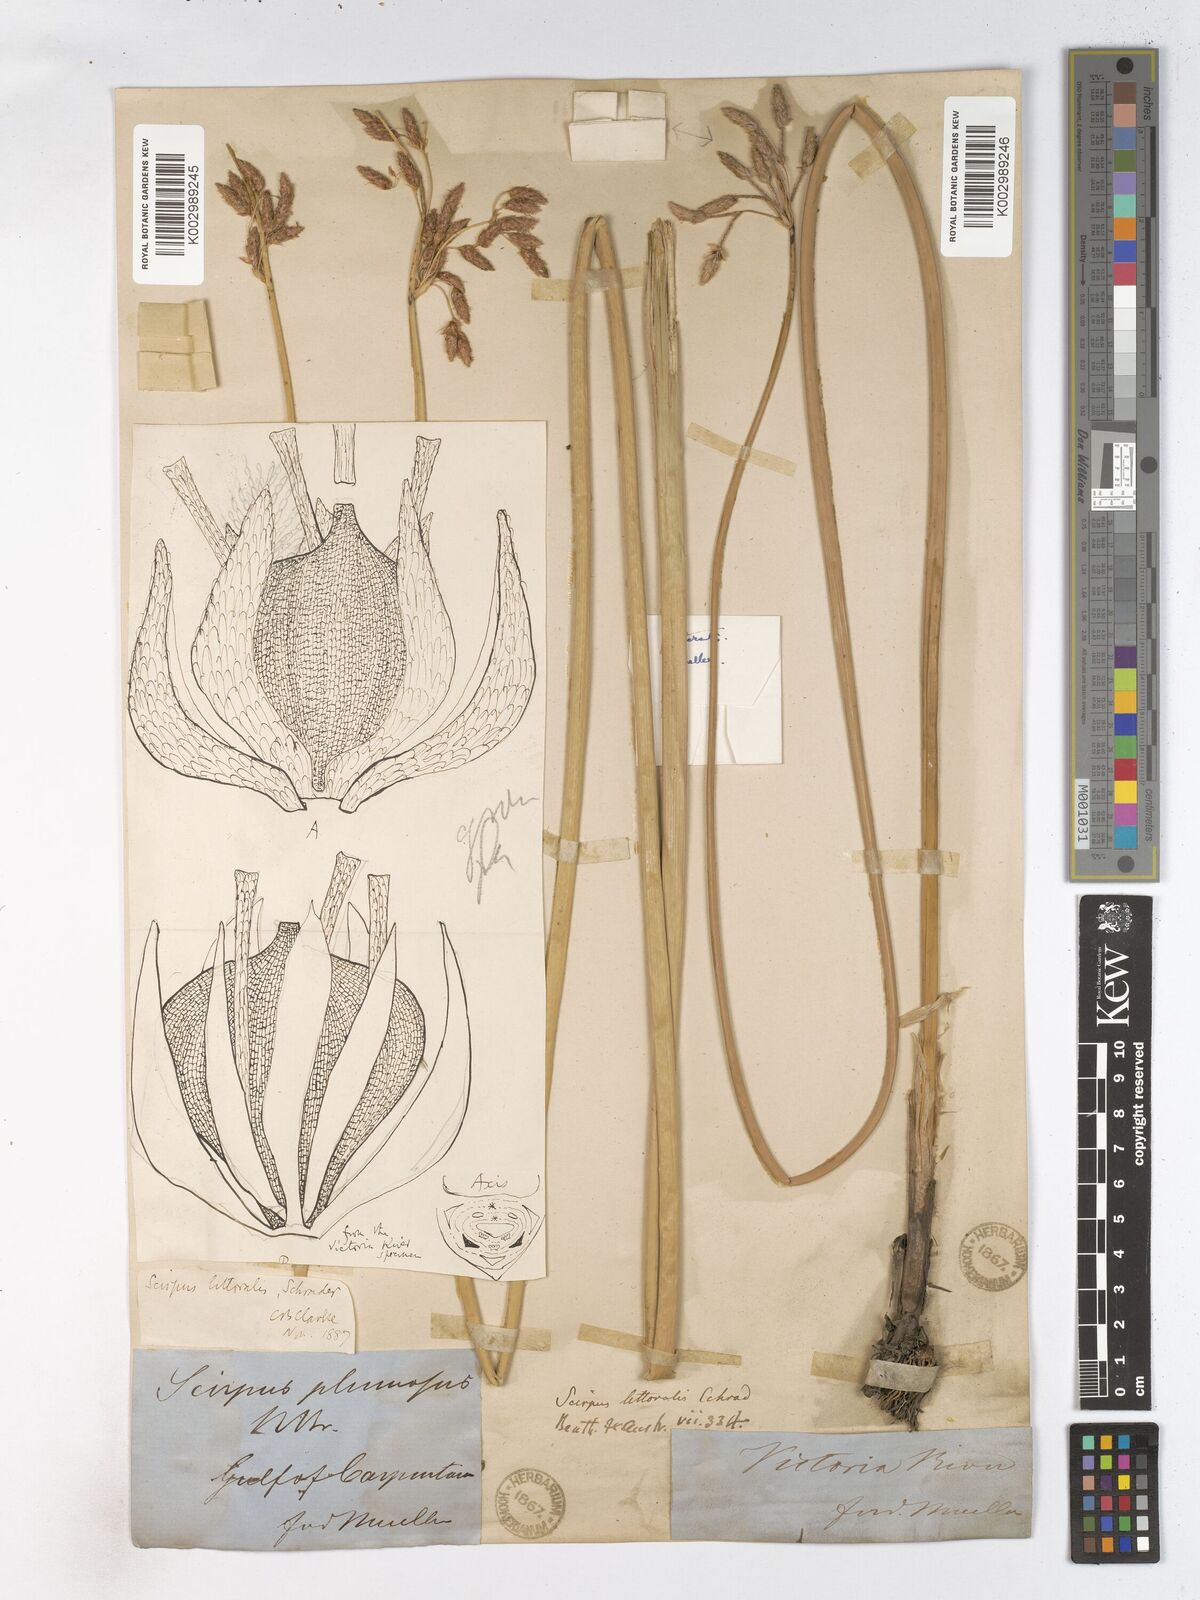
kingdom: Plantae
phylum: Tracheophyta
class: Liliopsida
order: Poales
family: Cyperaceae
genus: Schoenoplectus
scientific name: Schoenoplectus litoralis
